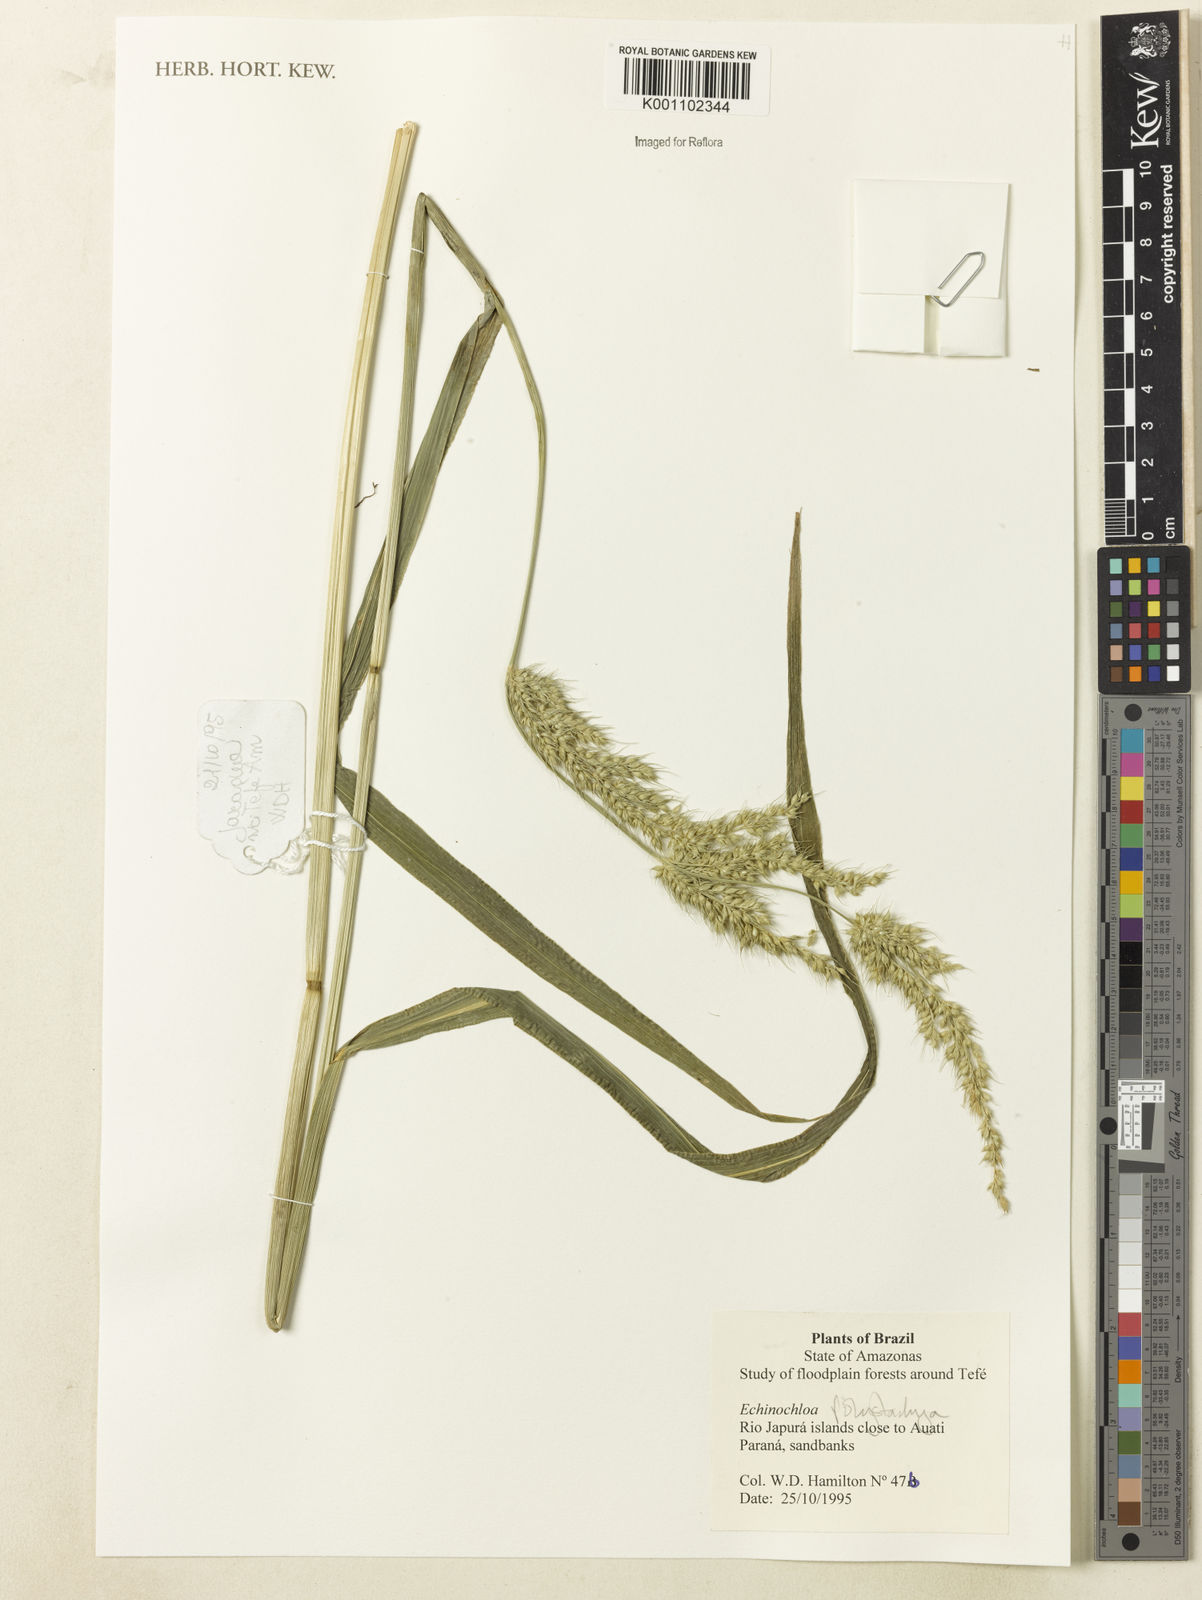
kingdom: Plantae
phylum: Tracheophyta
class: Liliopsida
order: Poales
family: Poaceae
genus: Echinochloa
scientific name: Echinochloa polystachya
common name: Creeping river grass
